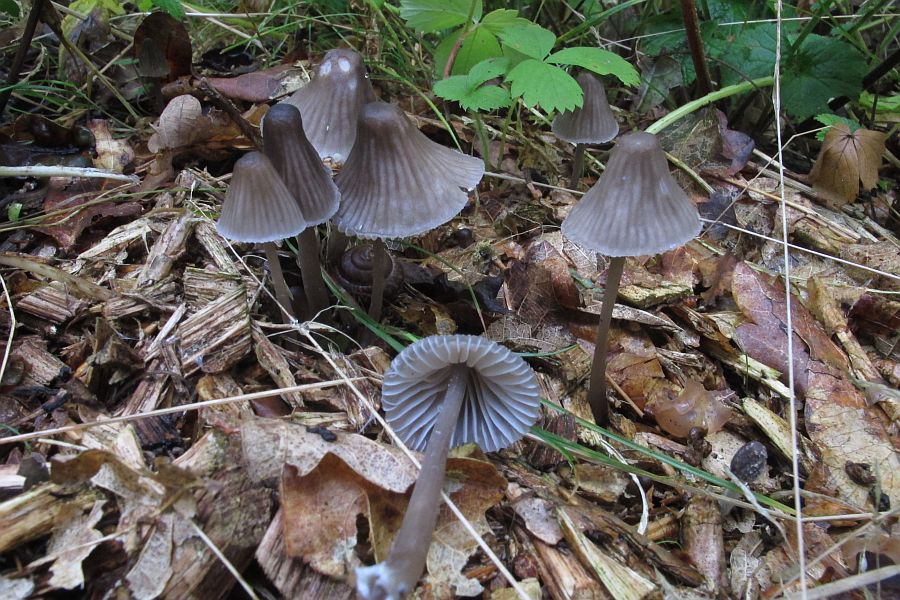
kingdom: Fungi
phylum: Basidiomycota
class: Agaricomycetes
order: Agaricales
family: Mycenaceae
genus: Mycena
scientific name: Mycena galopus
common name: hvidmælket huesvamp
